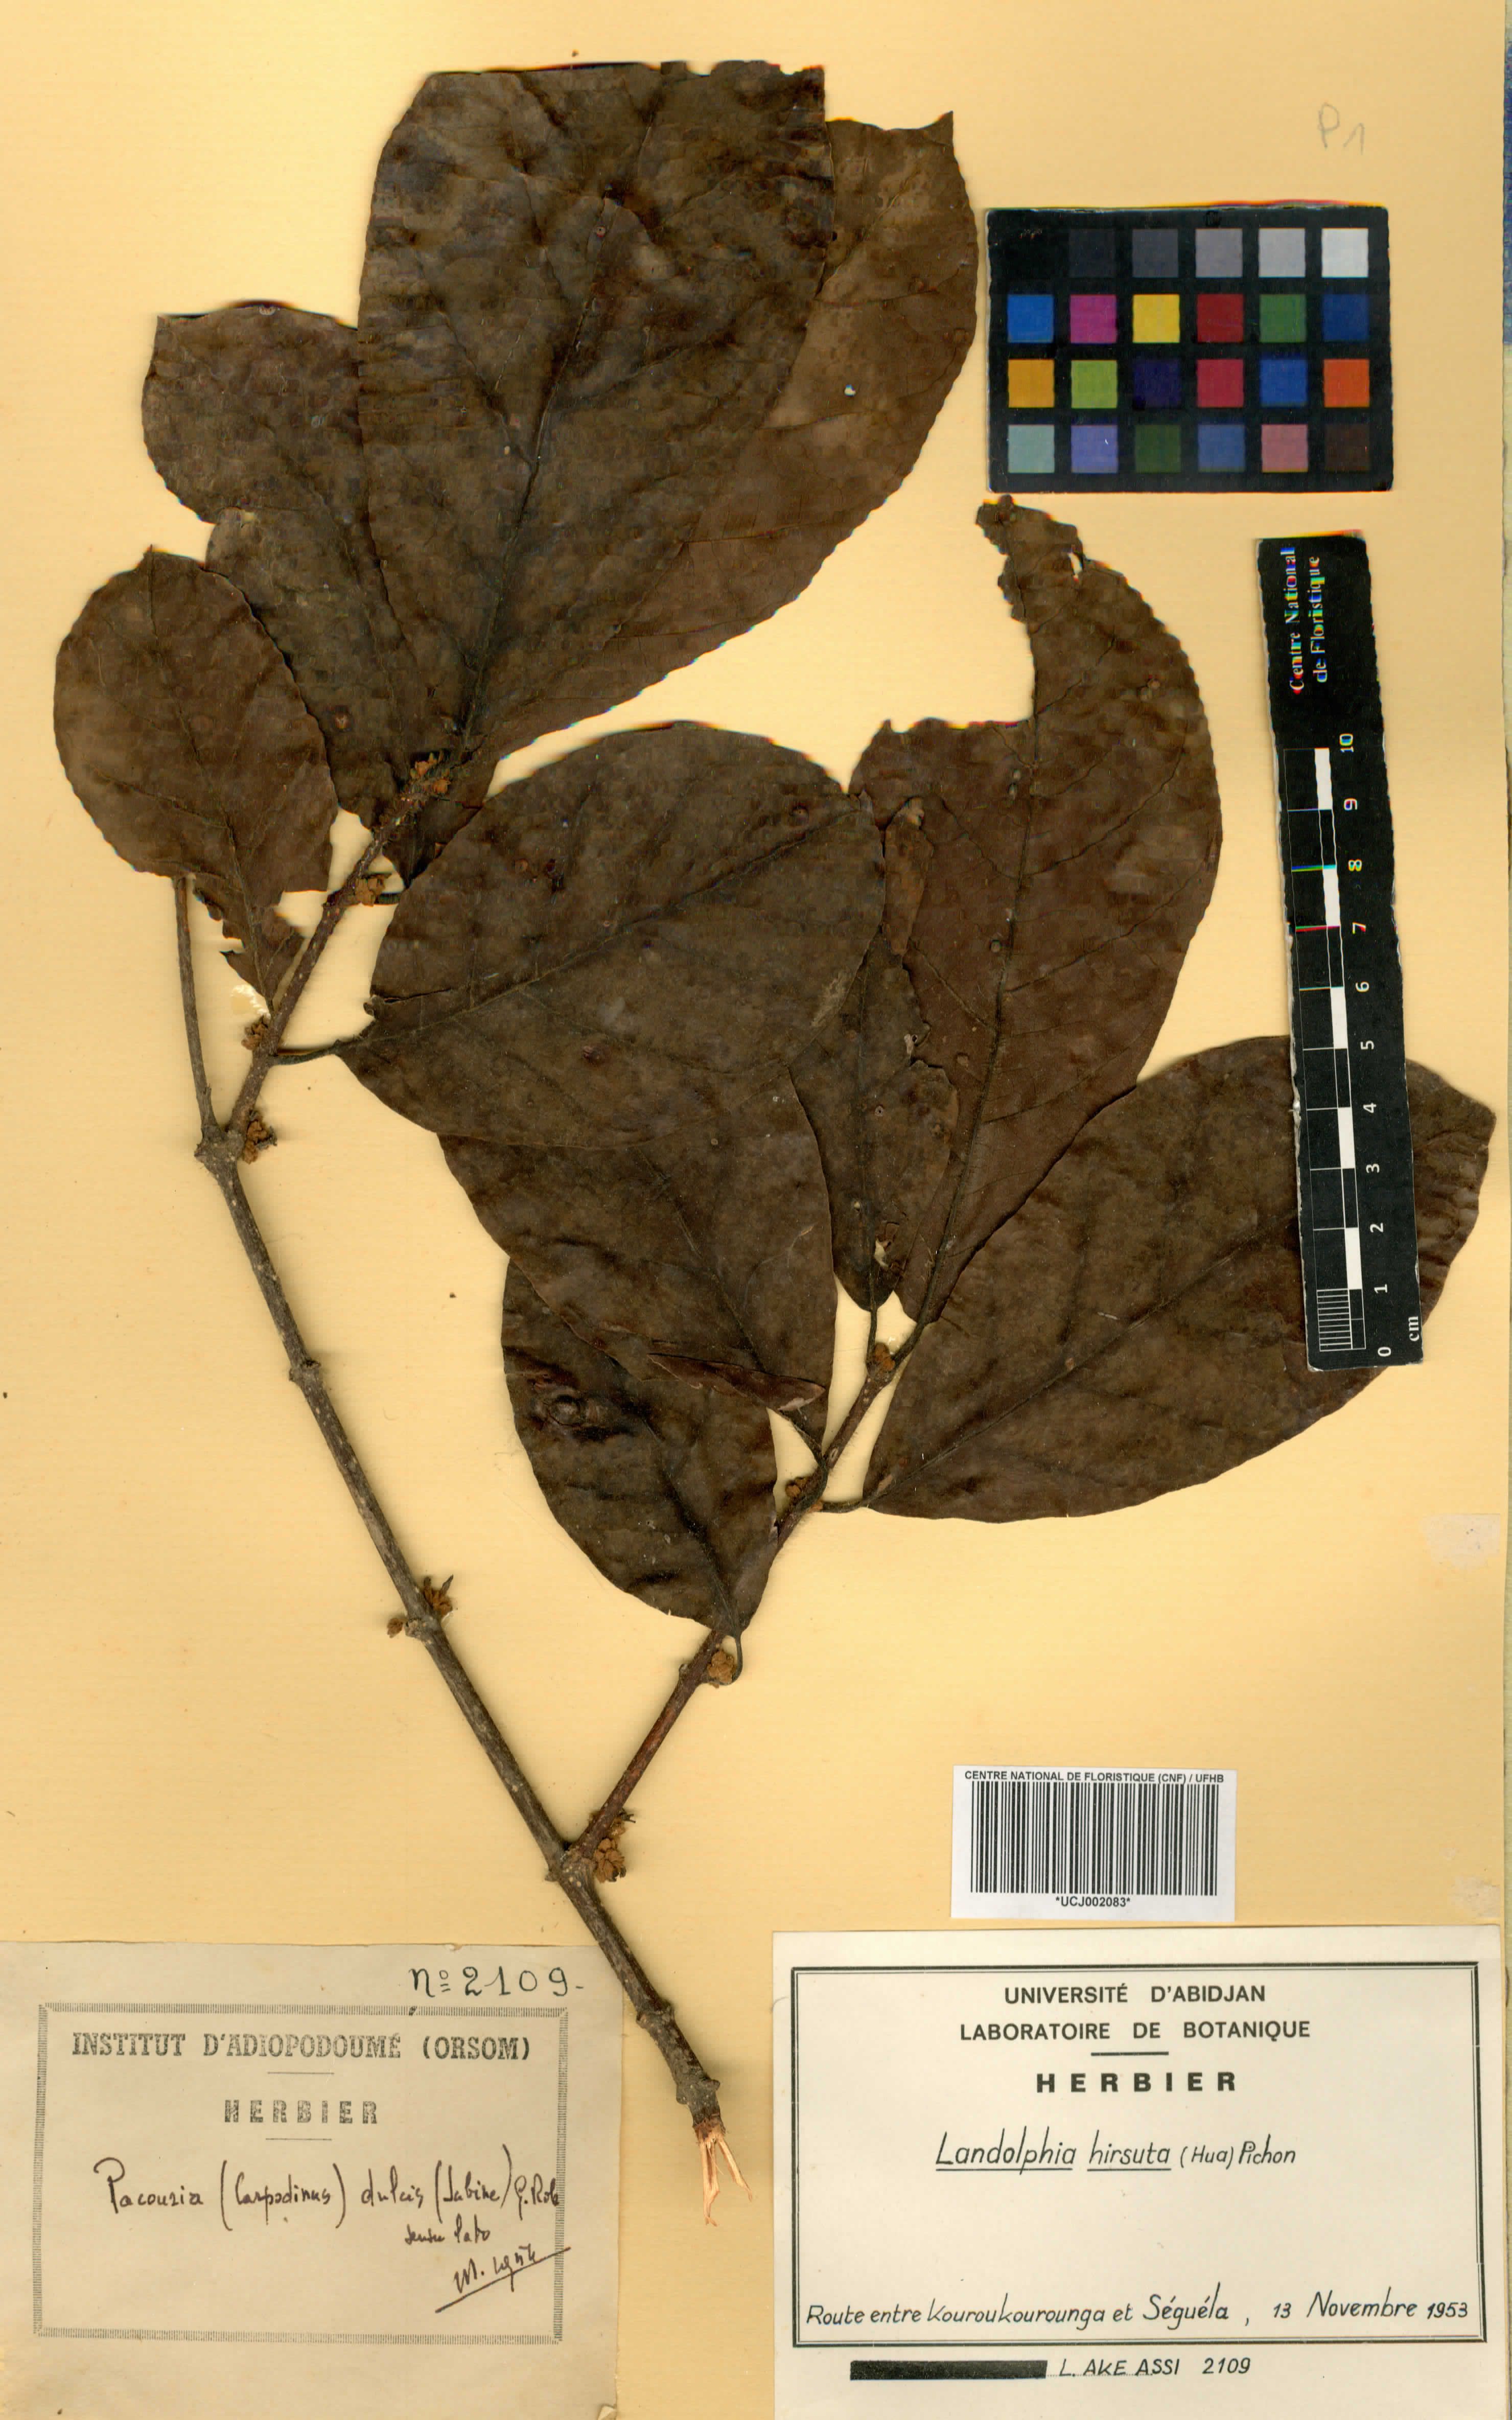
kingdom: Plantae
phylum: Tracheophyta
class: Magnoliopsida
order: Gentianales
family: Apocynaceae
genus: Landolphia
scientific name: Landolphia hirsuta
